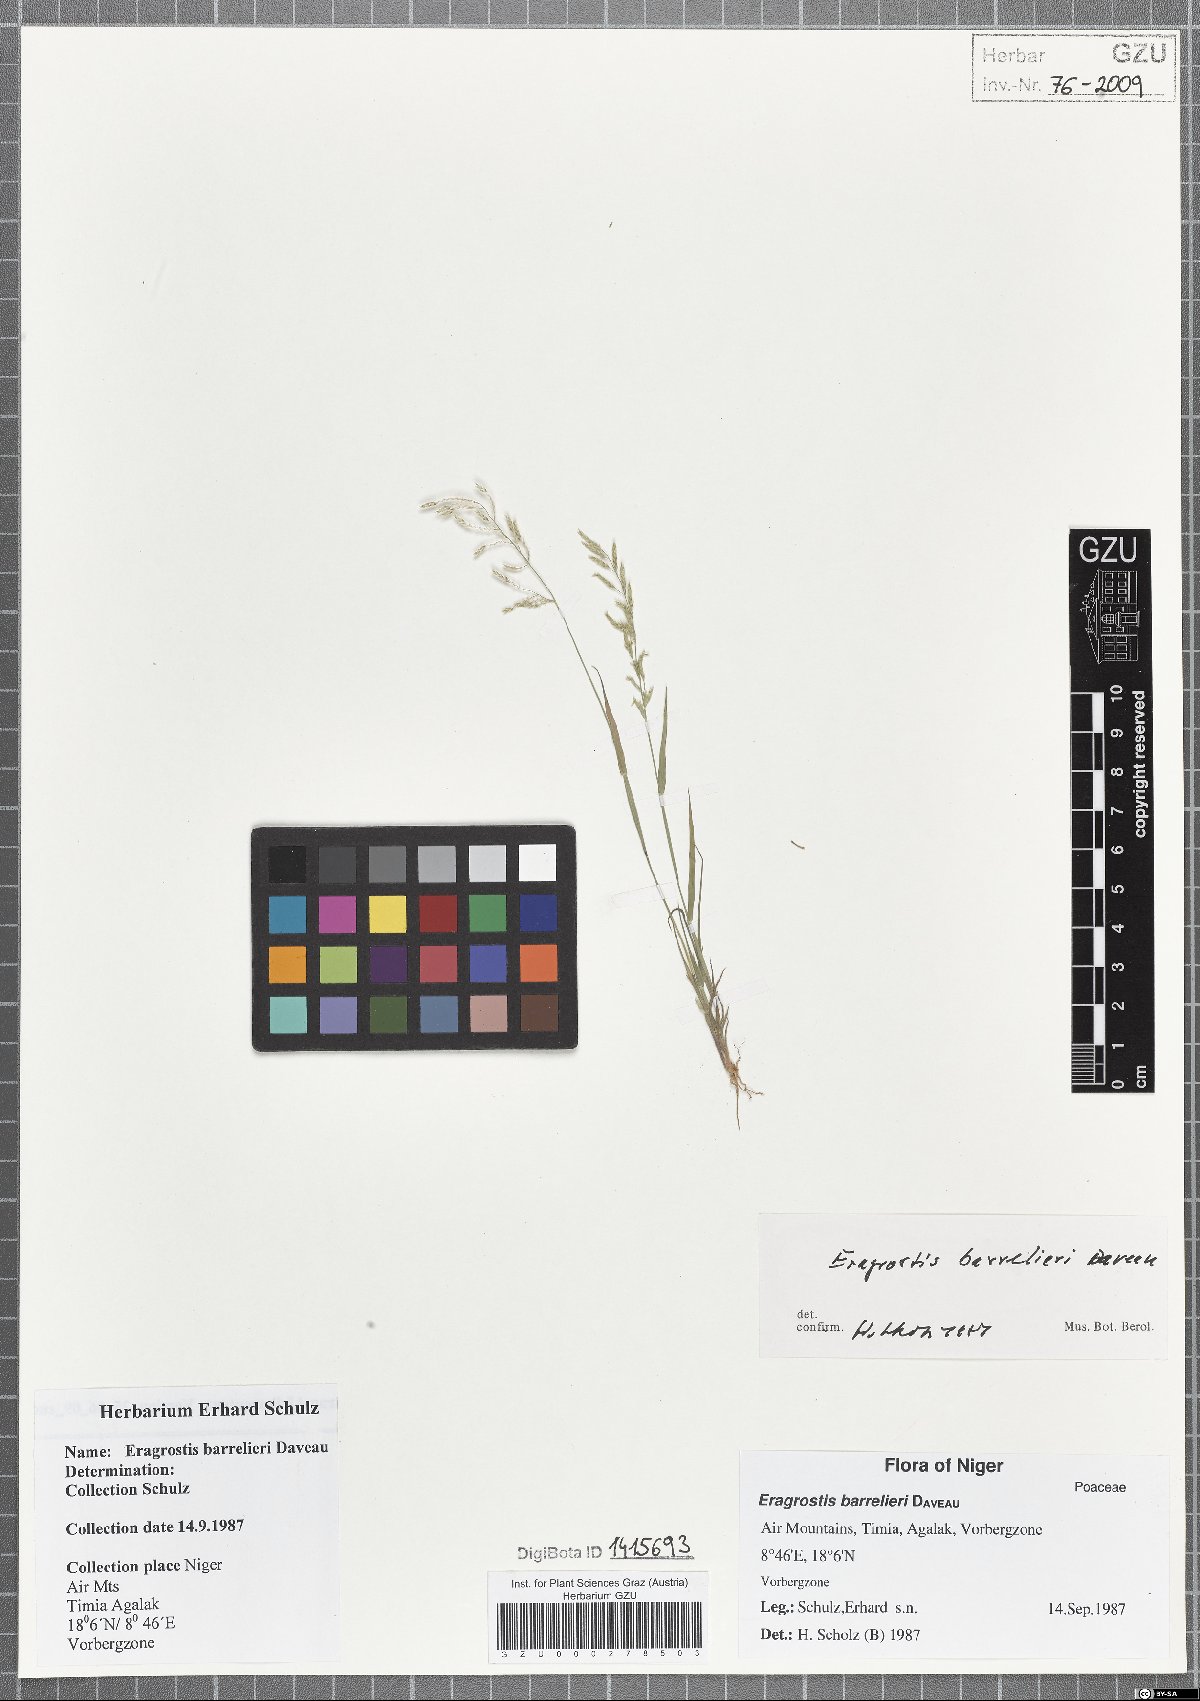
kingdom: Plantae
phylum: Tracheophyta
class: Liliopsida
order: Poales
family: Poaceae
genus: Eragrostis
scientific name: Eragrostis barrelieri
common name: Mediterranean lovegrass
